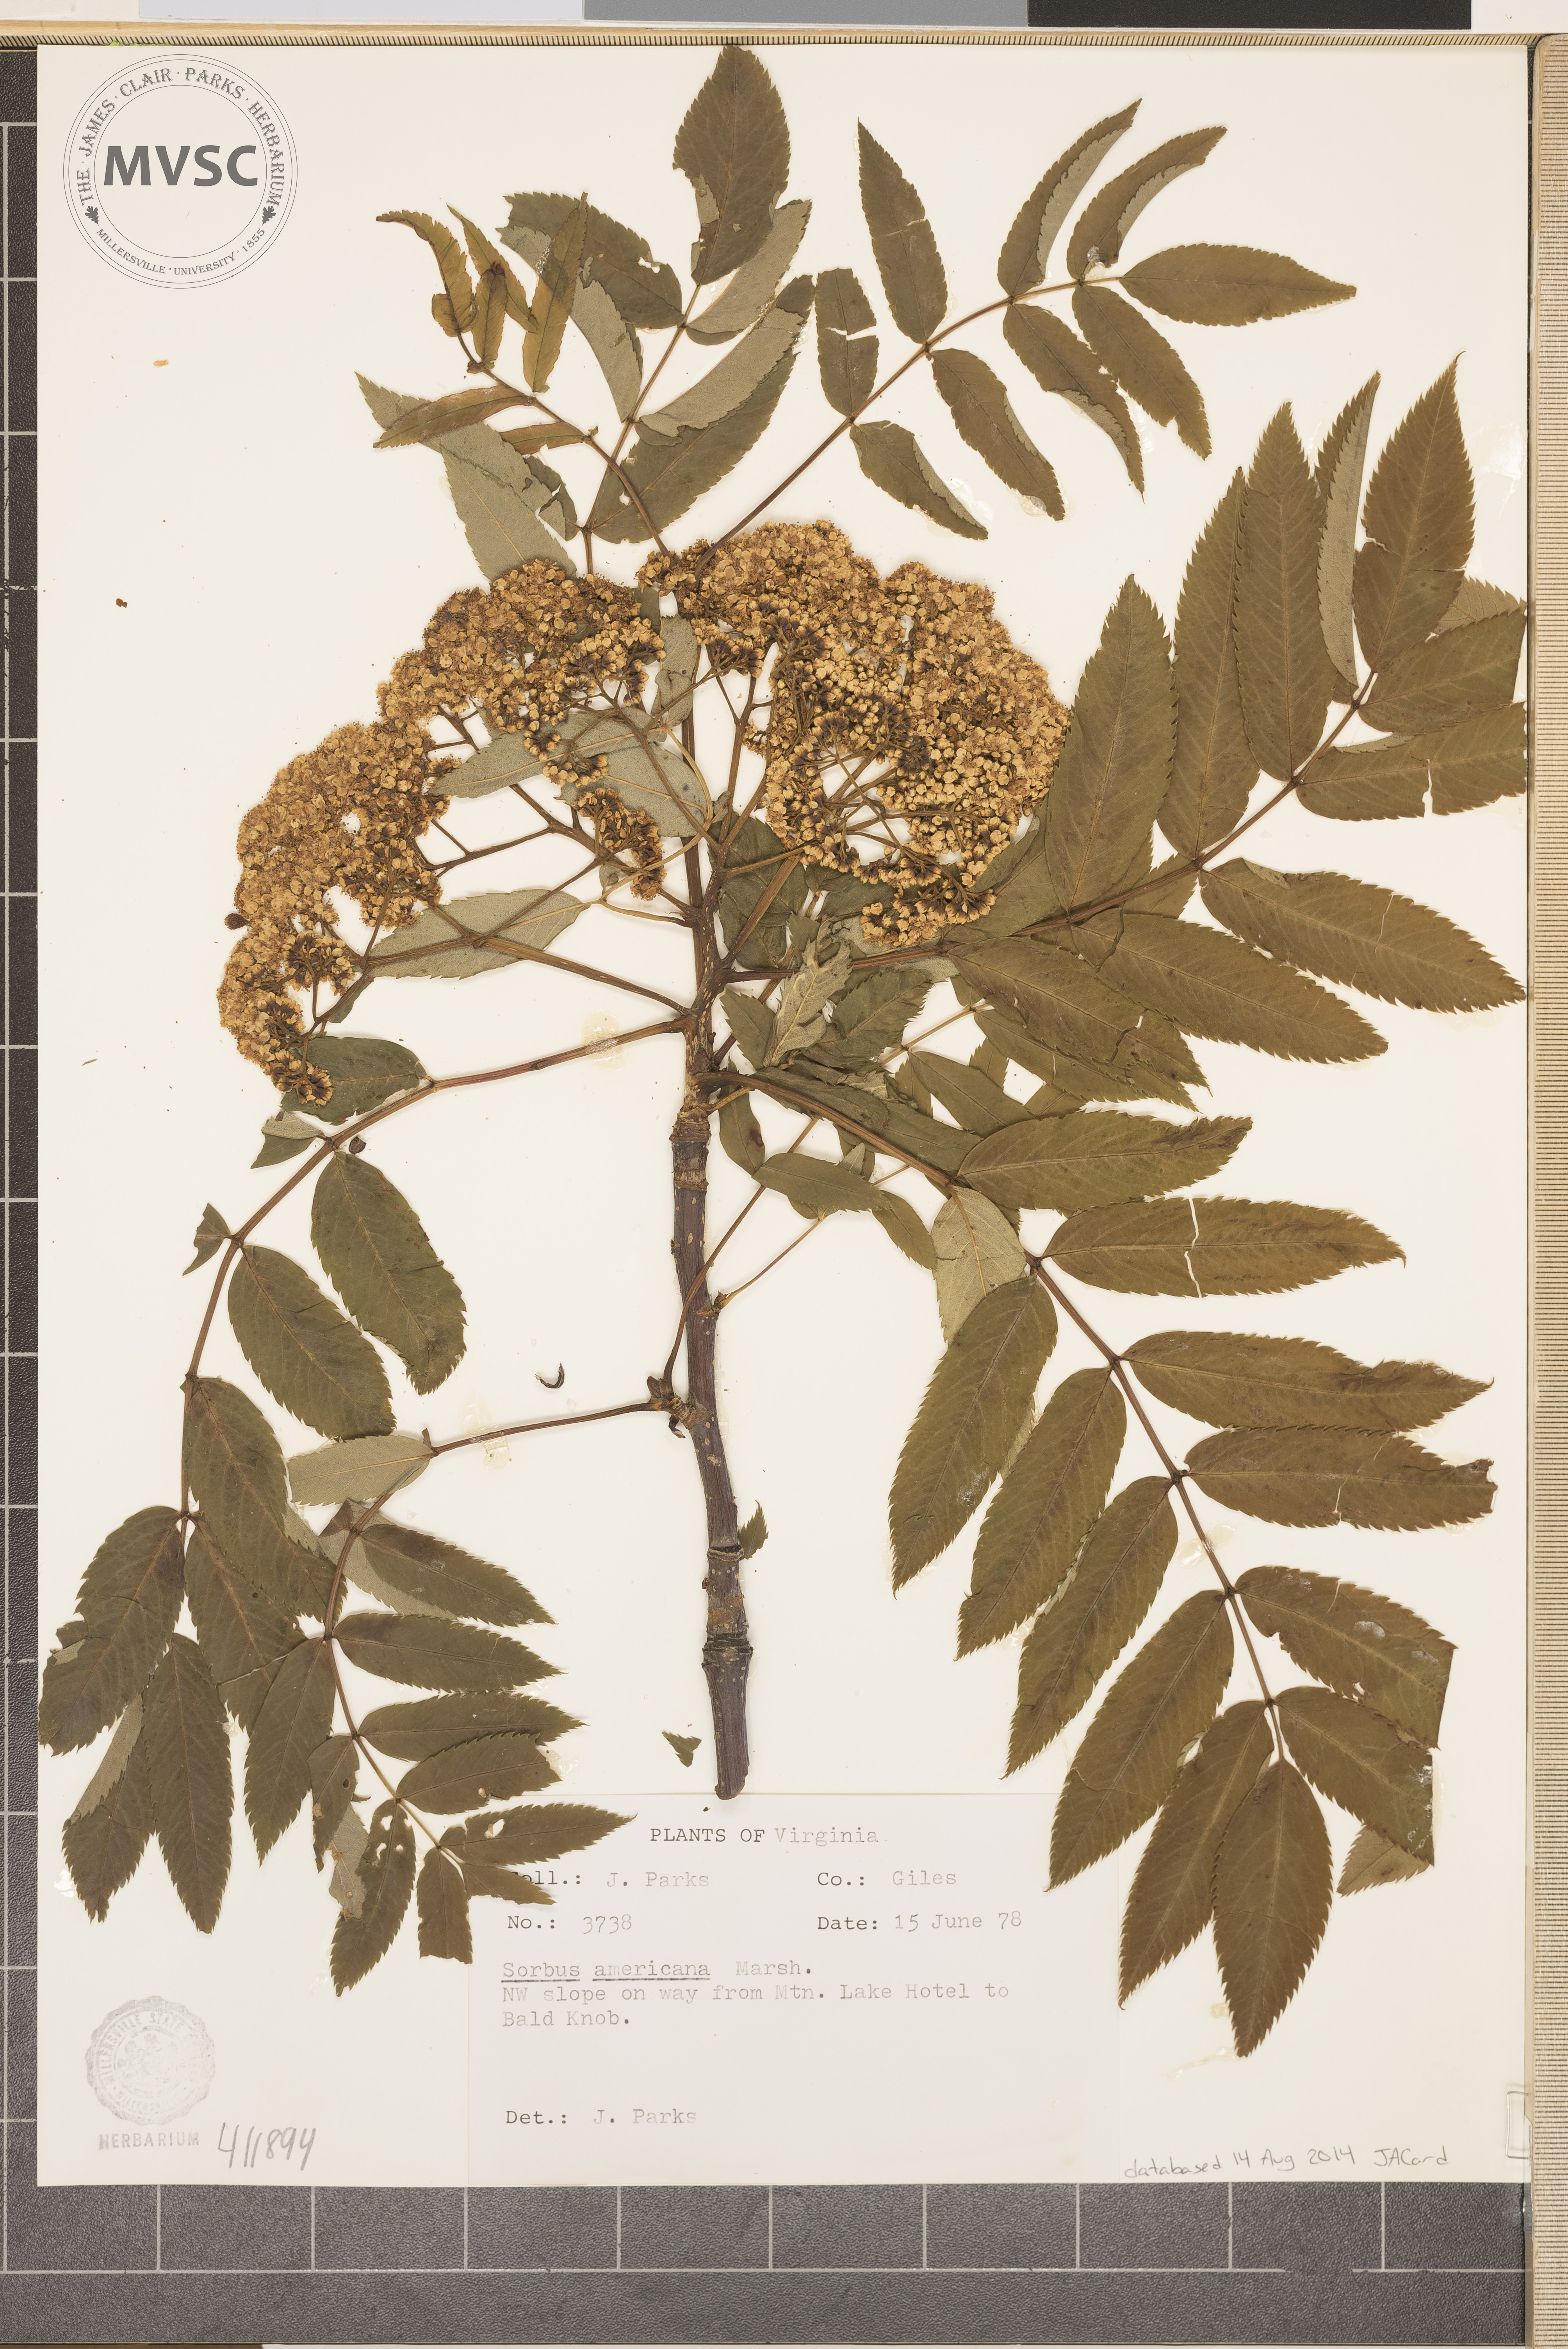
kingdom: Plantae
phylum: Tracheophyta
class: Magnoliopsida
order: Rosales
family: Rosaceae
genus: Sorbus
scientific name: Sorbus americana
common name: American mountain-ash
